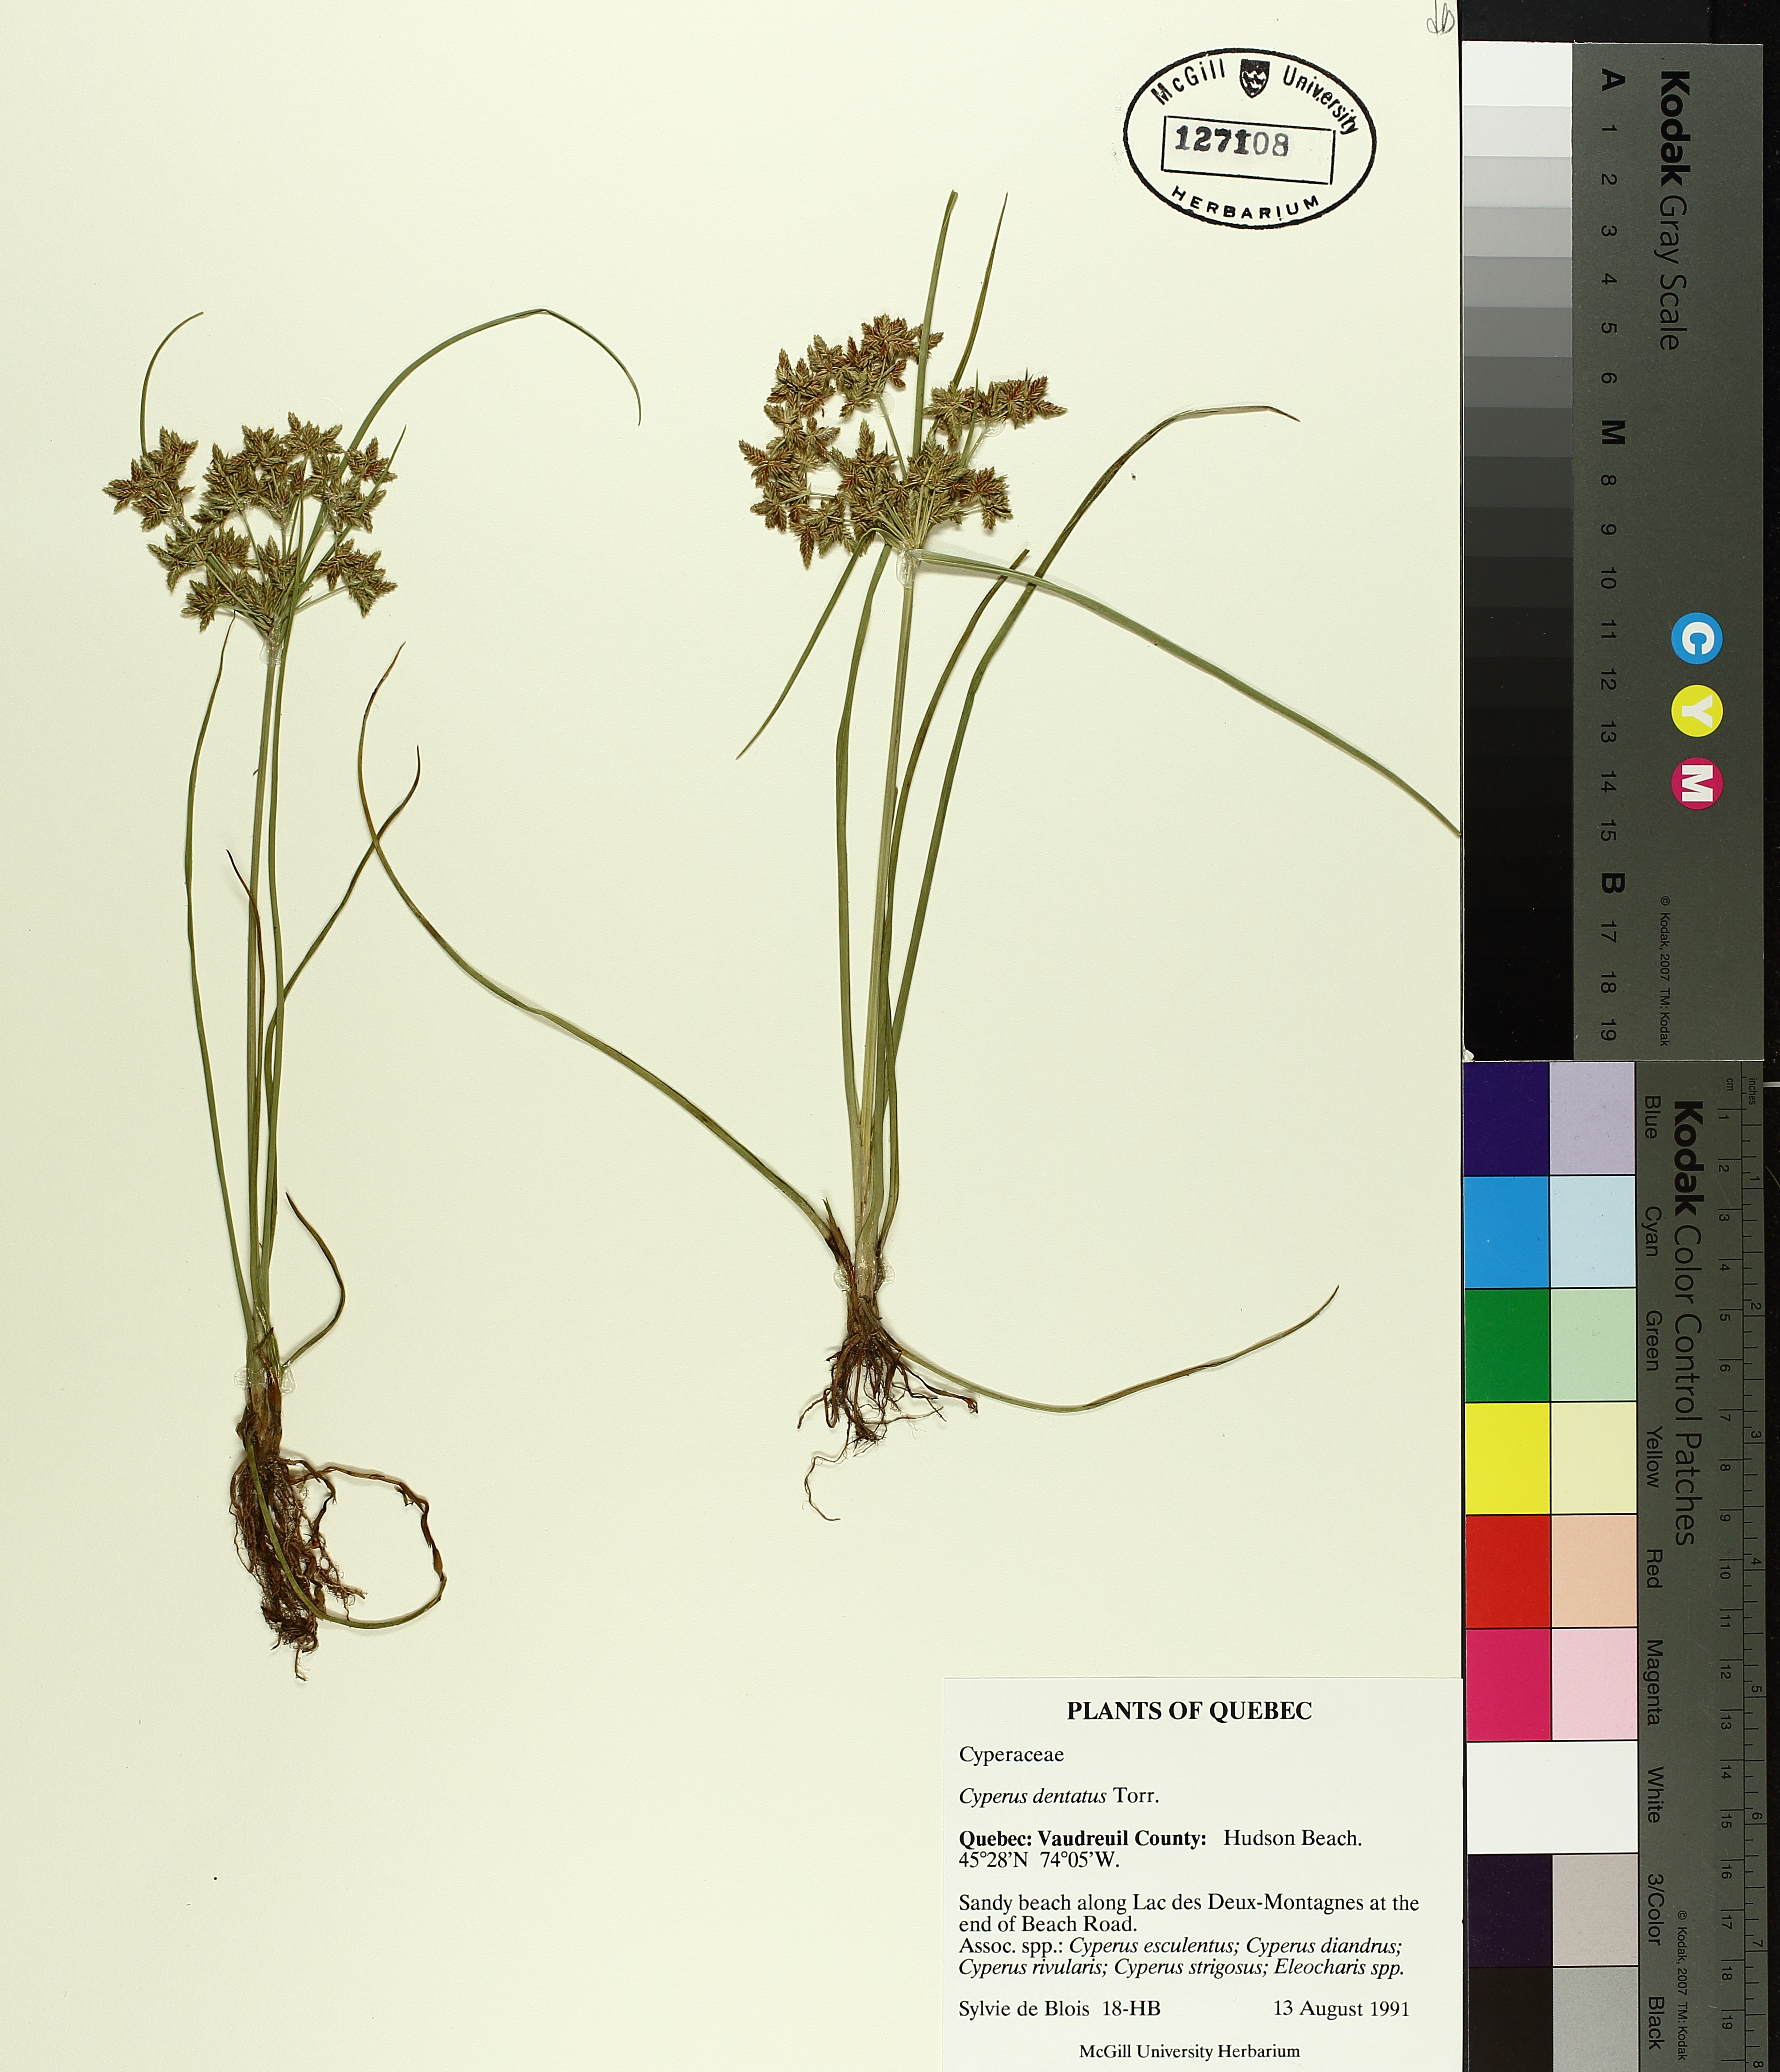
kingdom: Plantae
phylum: Tracheophyta
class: Liliopsida
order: Poales
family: Cyperaceae
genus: Cyperus
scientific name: Cyperus dentatus
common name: Dentate umbrella sedge
